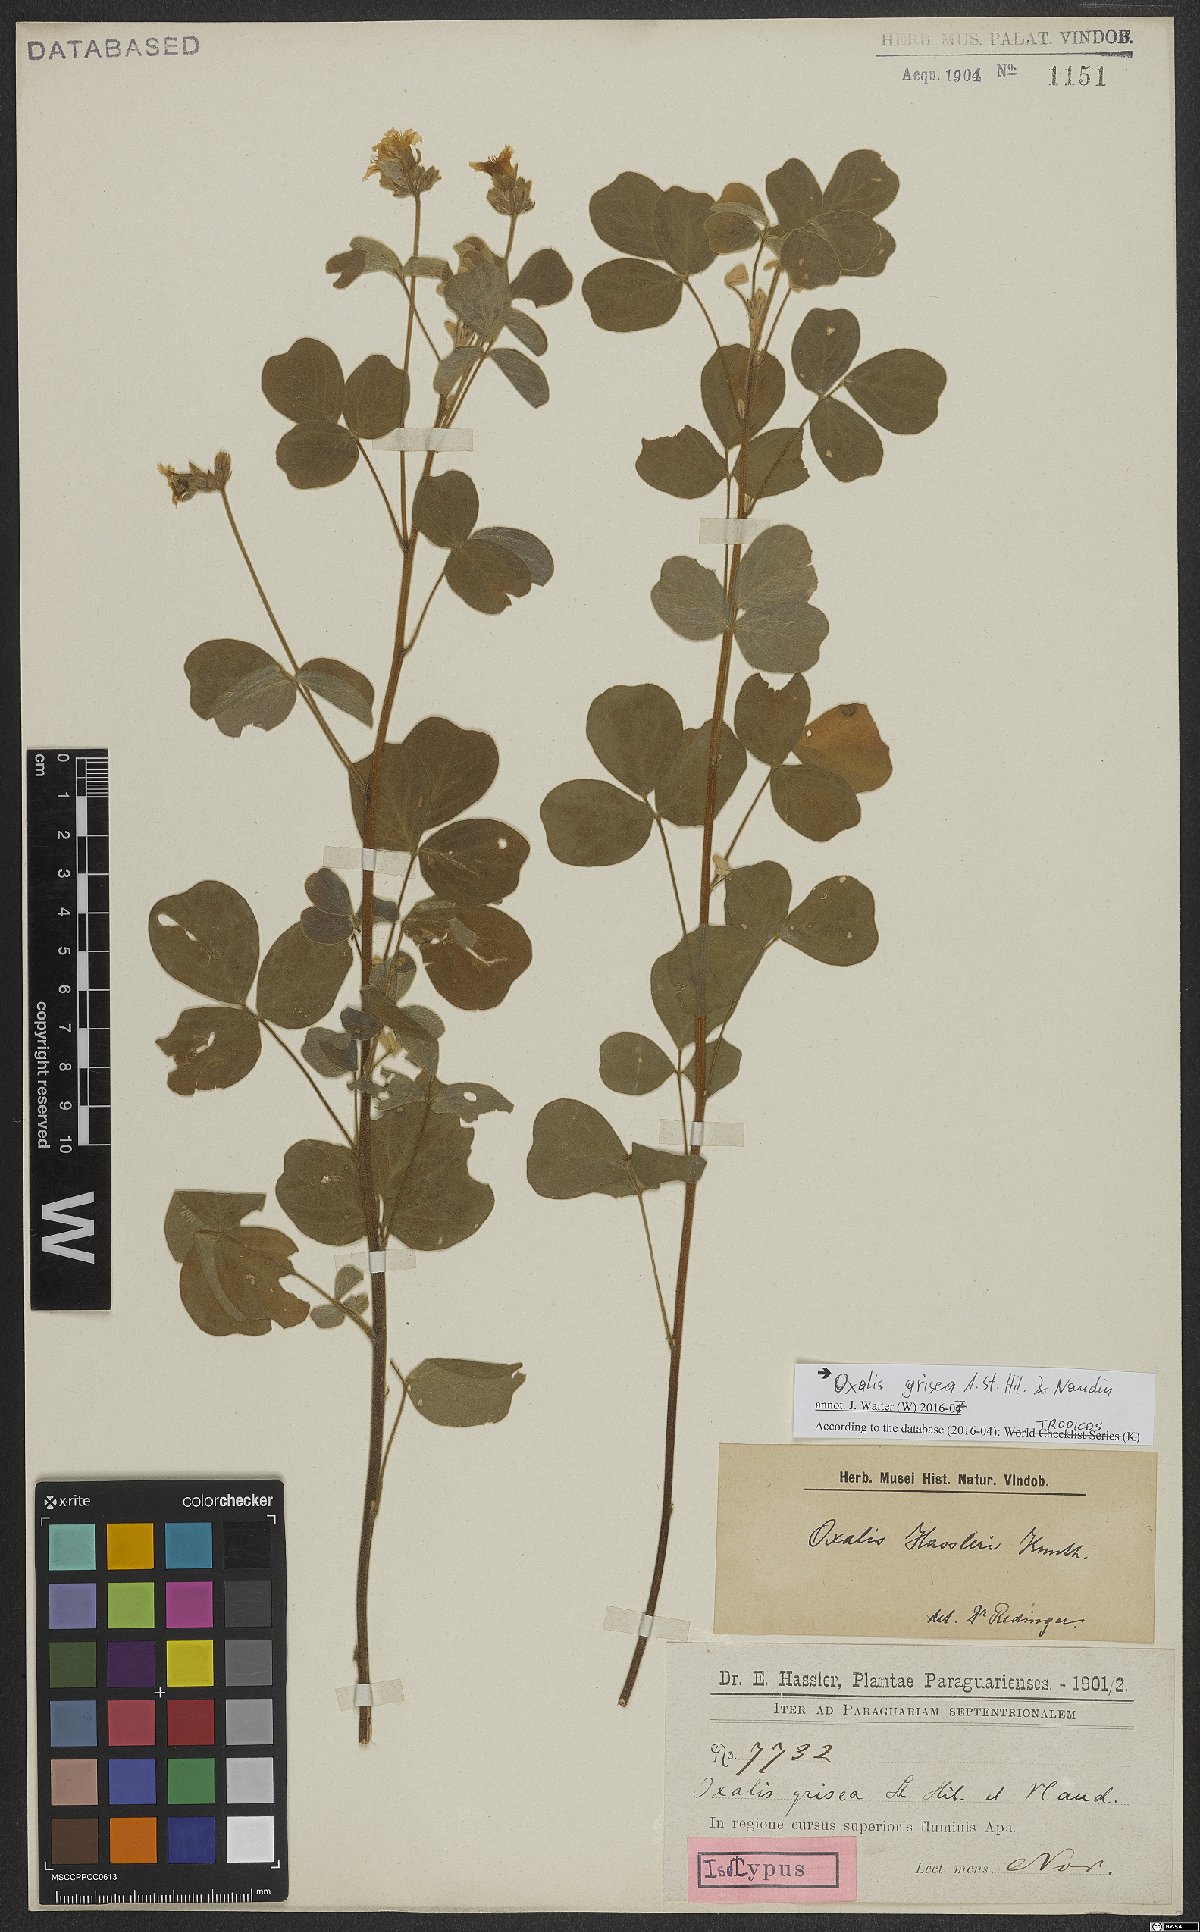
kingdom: Plantae
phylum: Tracheophyta
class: Magnoliopsida
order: Oxalidales
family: Oxalidaceae
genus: Oxalis
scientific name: Oxalis grisea
